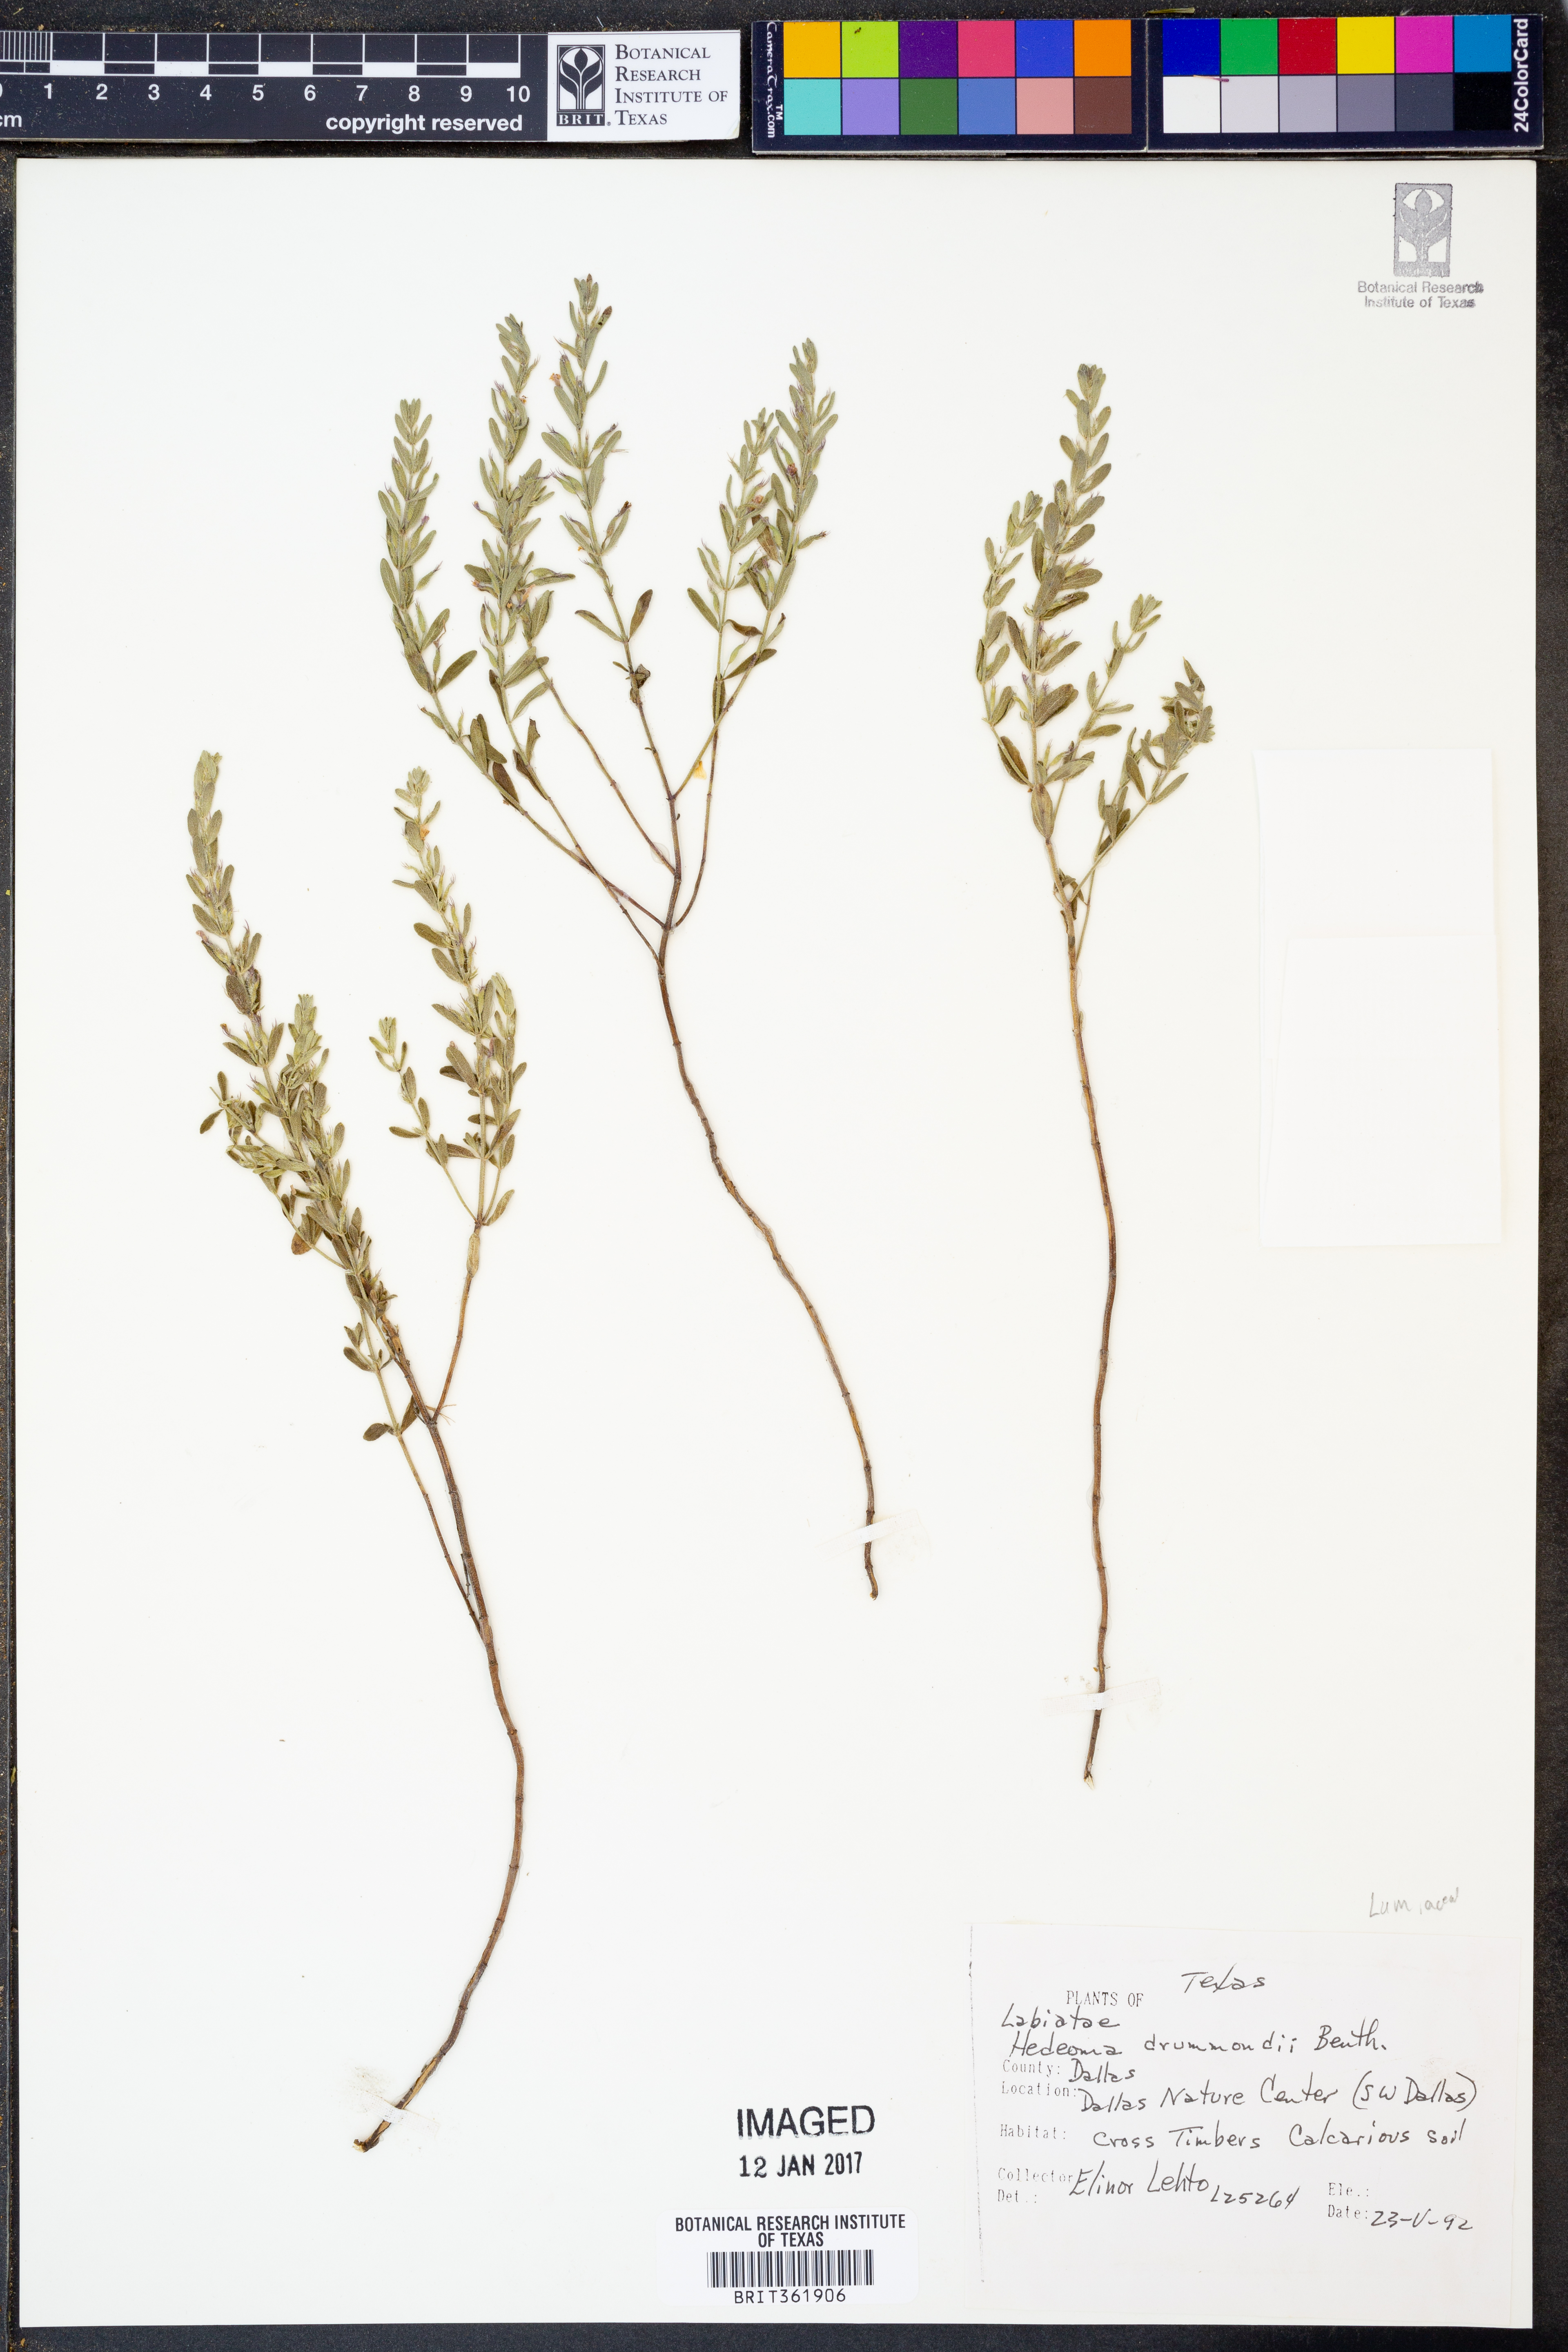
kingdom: Plantae
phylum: Tracheophyta
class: Magnoliopsida
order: Lamiales
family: Lamiaceae
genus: Hedeoma
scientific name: Hedeoma drummondii
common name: New mexico pennyroyal
